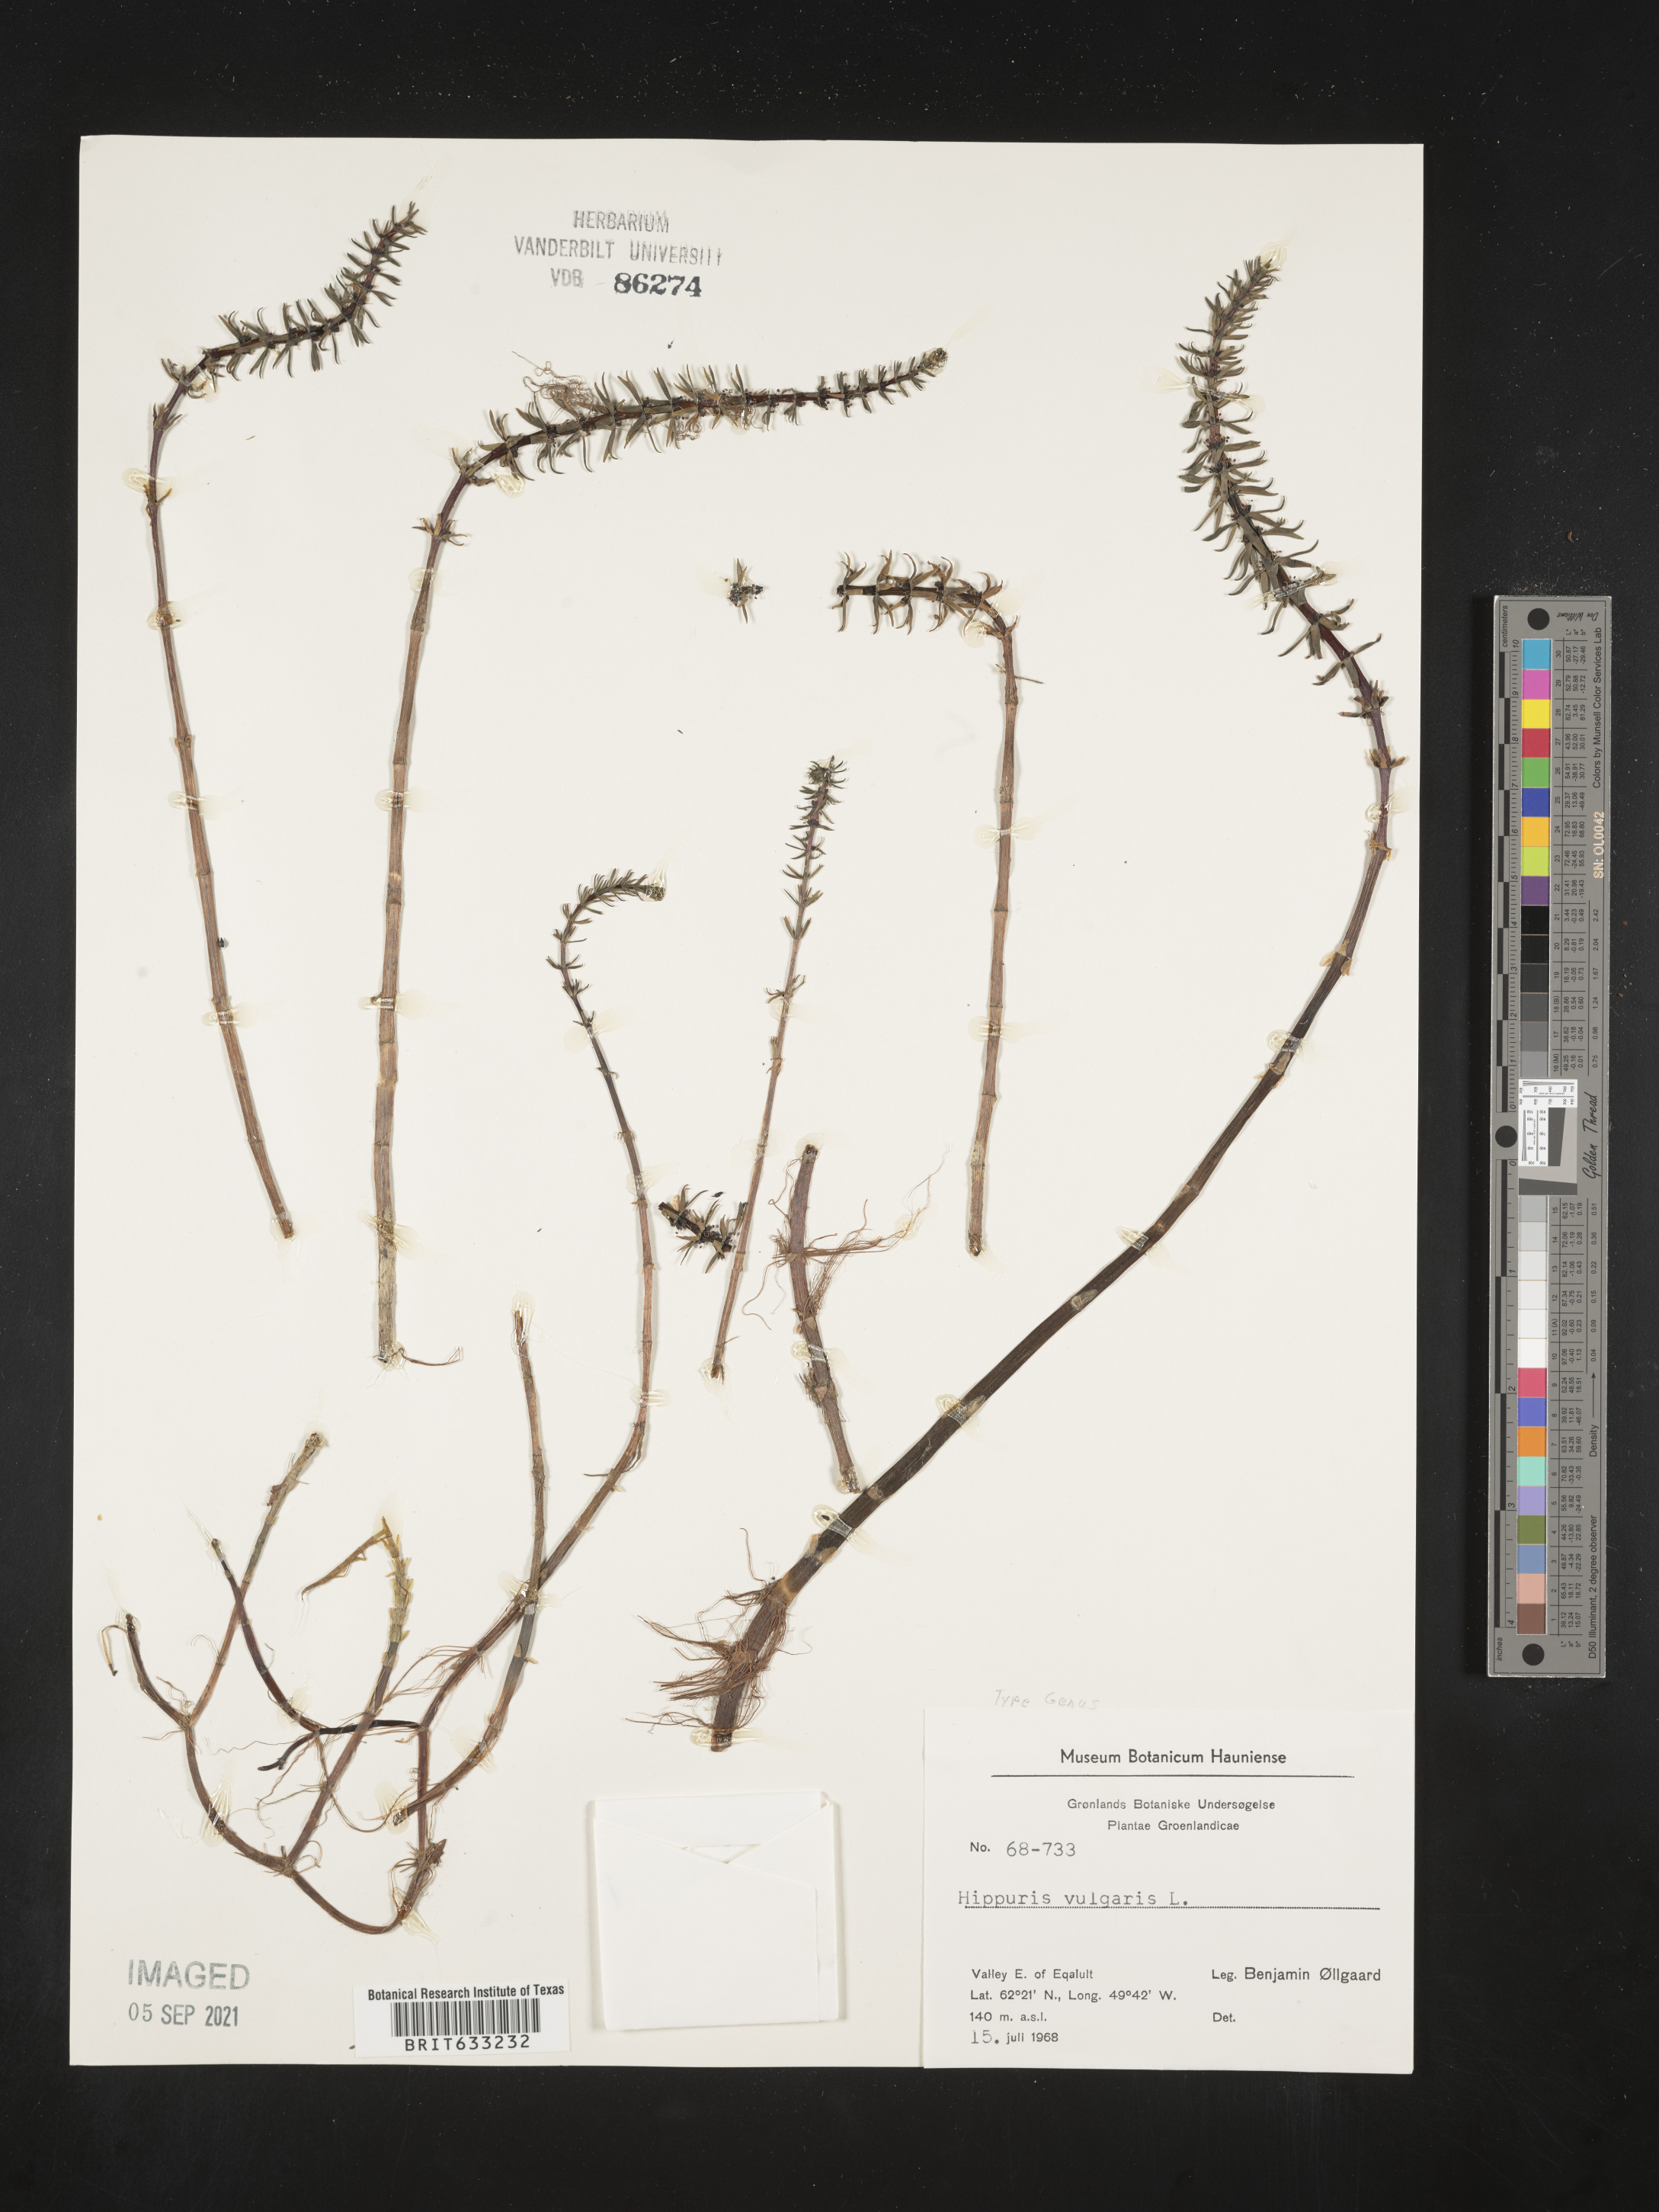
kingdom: Plantae
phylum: Tracheophyta
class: Magnoliopsida
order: Lamiales
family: Plantaginaceae
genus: Hippuris
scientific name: Hippuris
